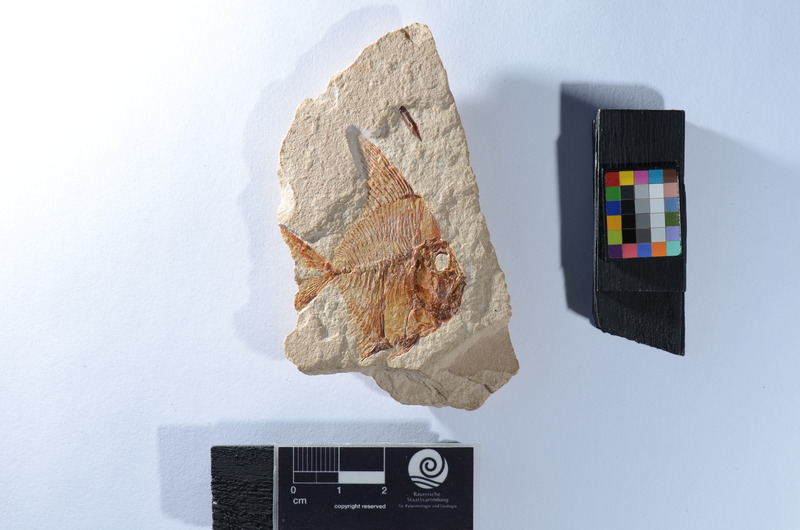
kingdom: Animalia
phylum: Chordata
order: Beryciformes
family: Aipichthyidae
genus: Aipichthys
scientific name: Aipichthys velifer
